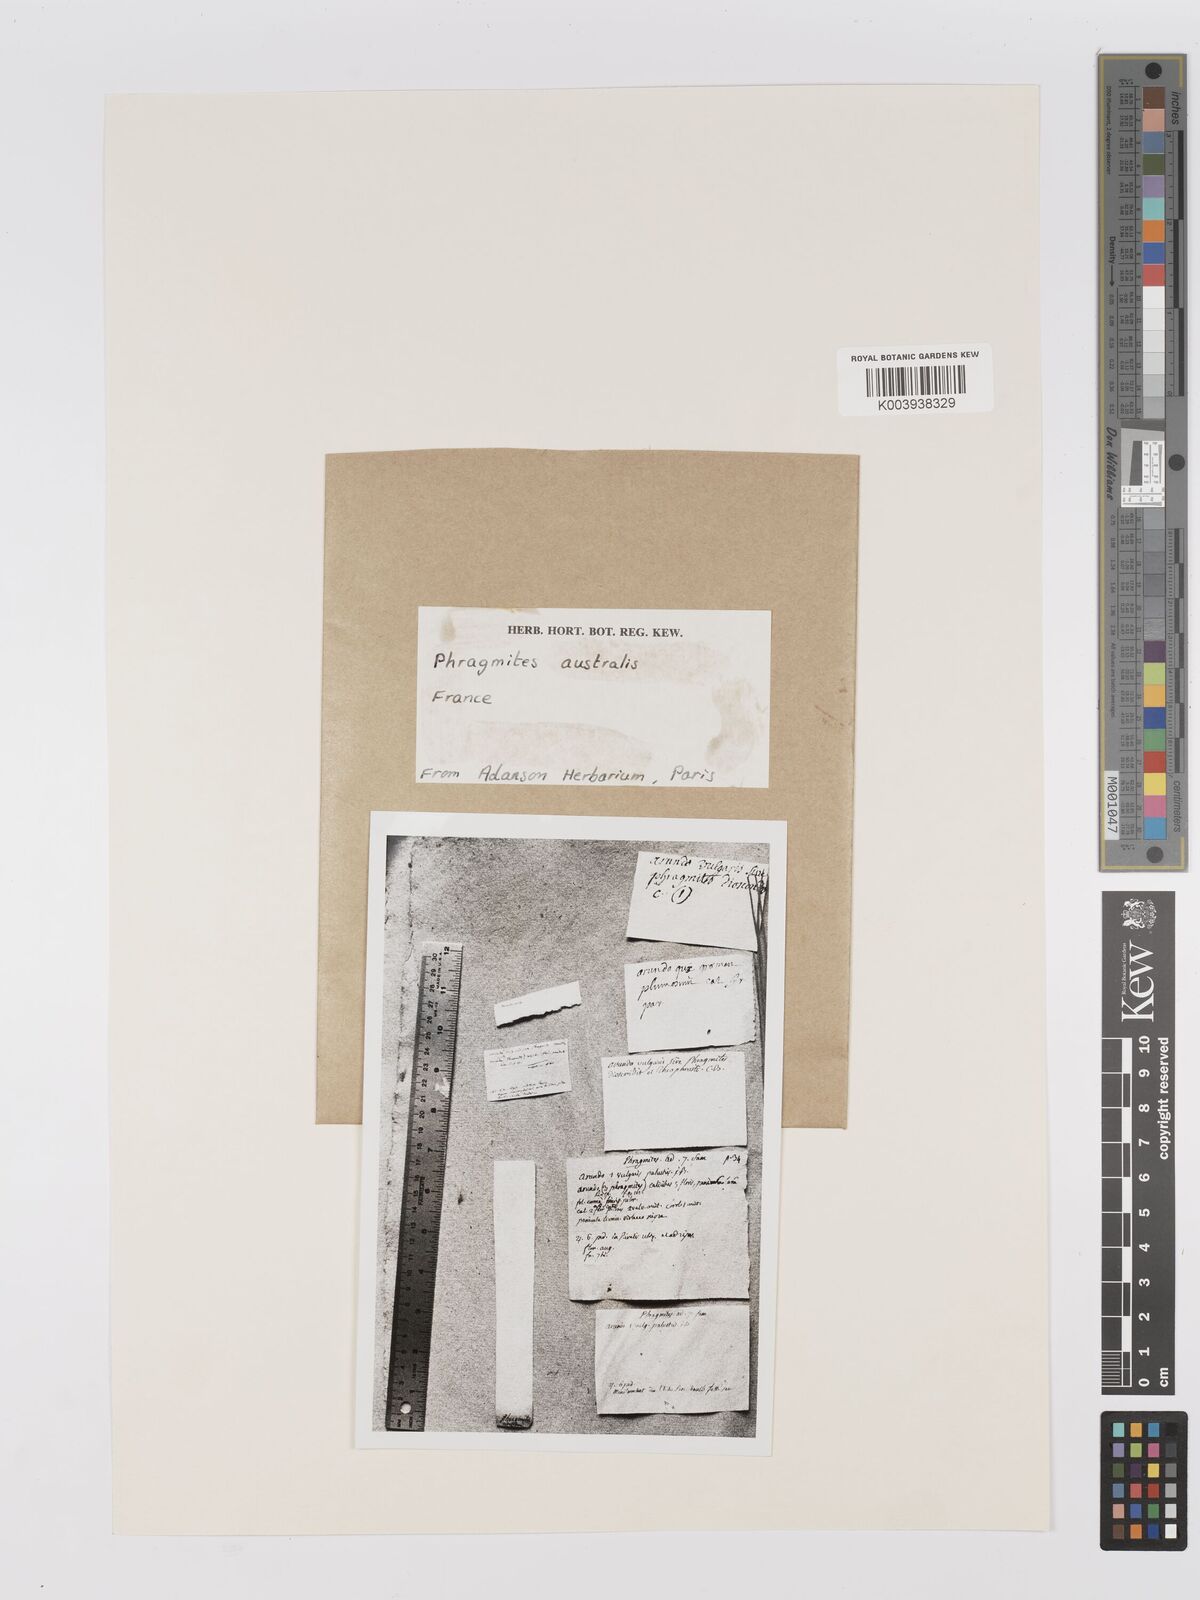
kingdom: Plantae
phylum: Tracheophyta
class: Liliopsida
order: Poales
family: Poaceae
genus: Phragmites
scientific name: Phragmites australis
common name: Common reed
